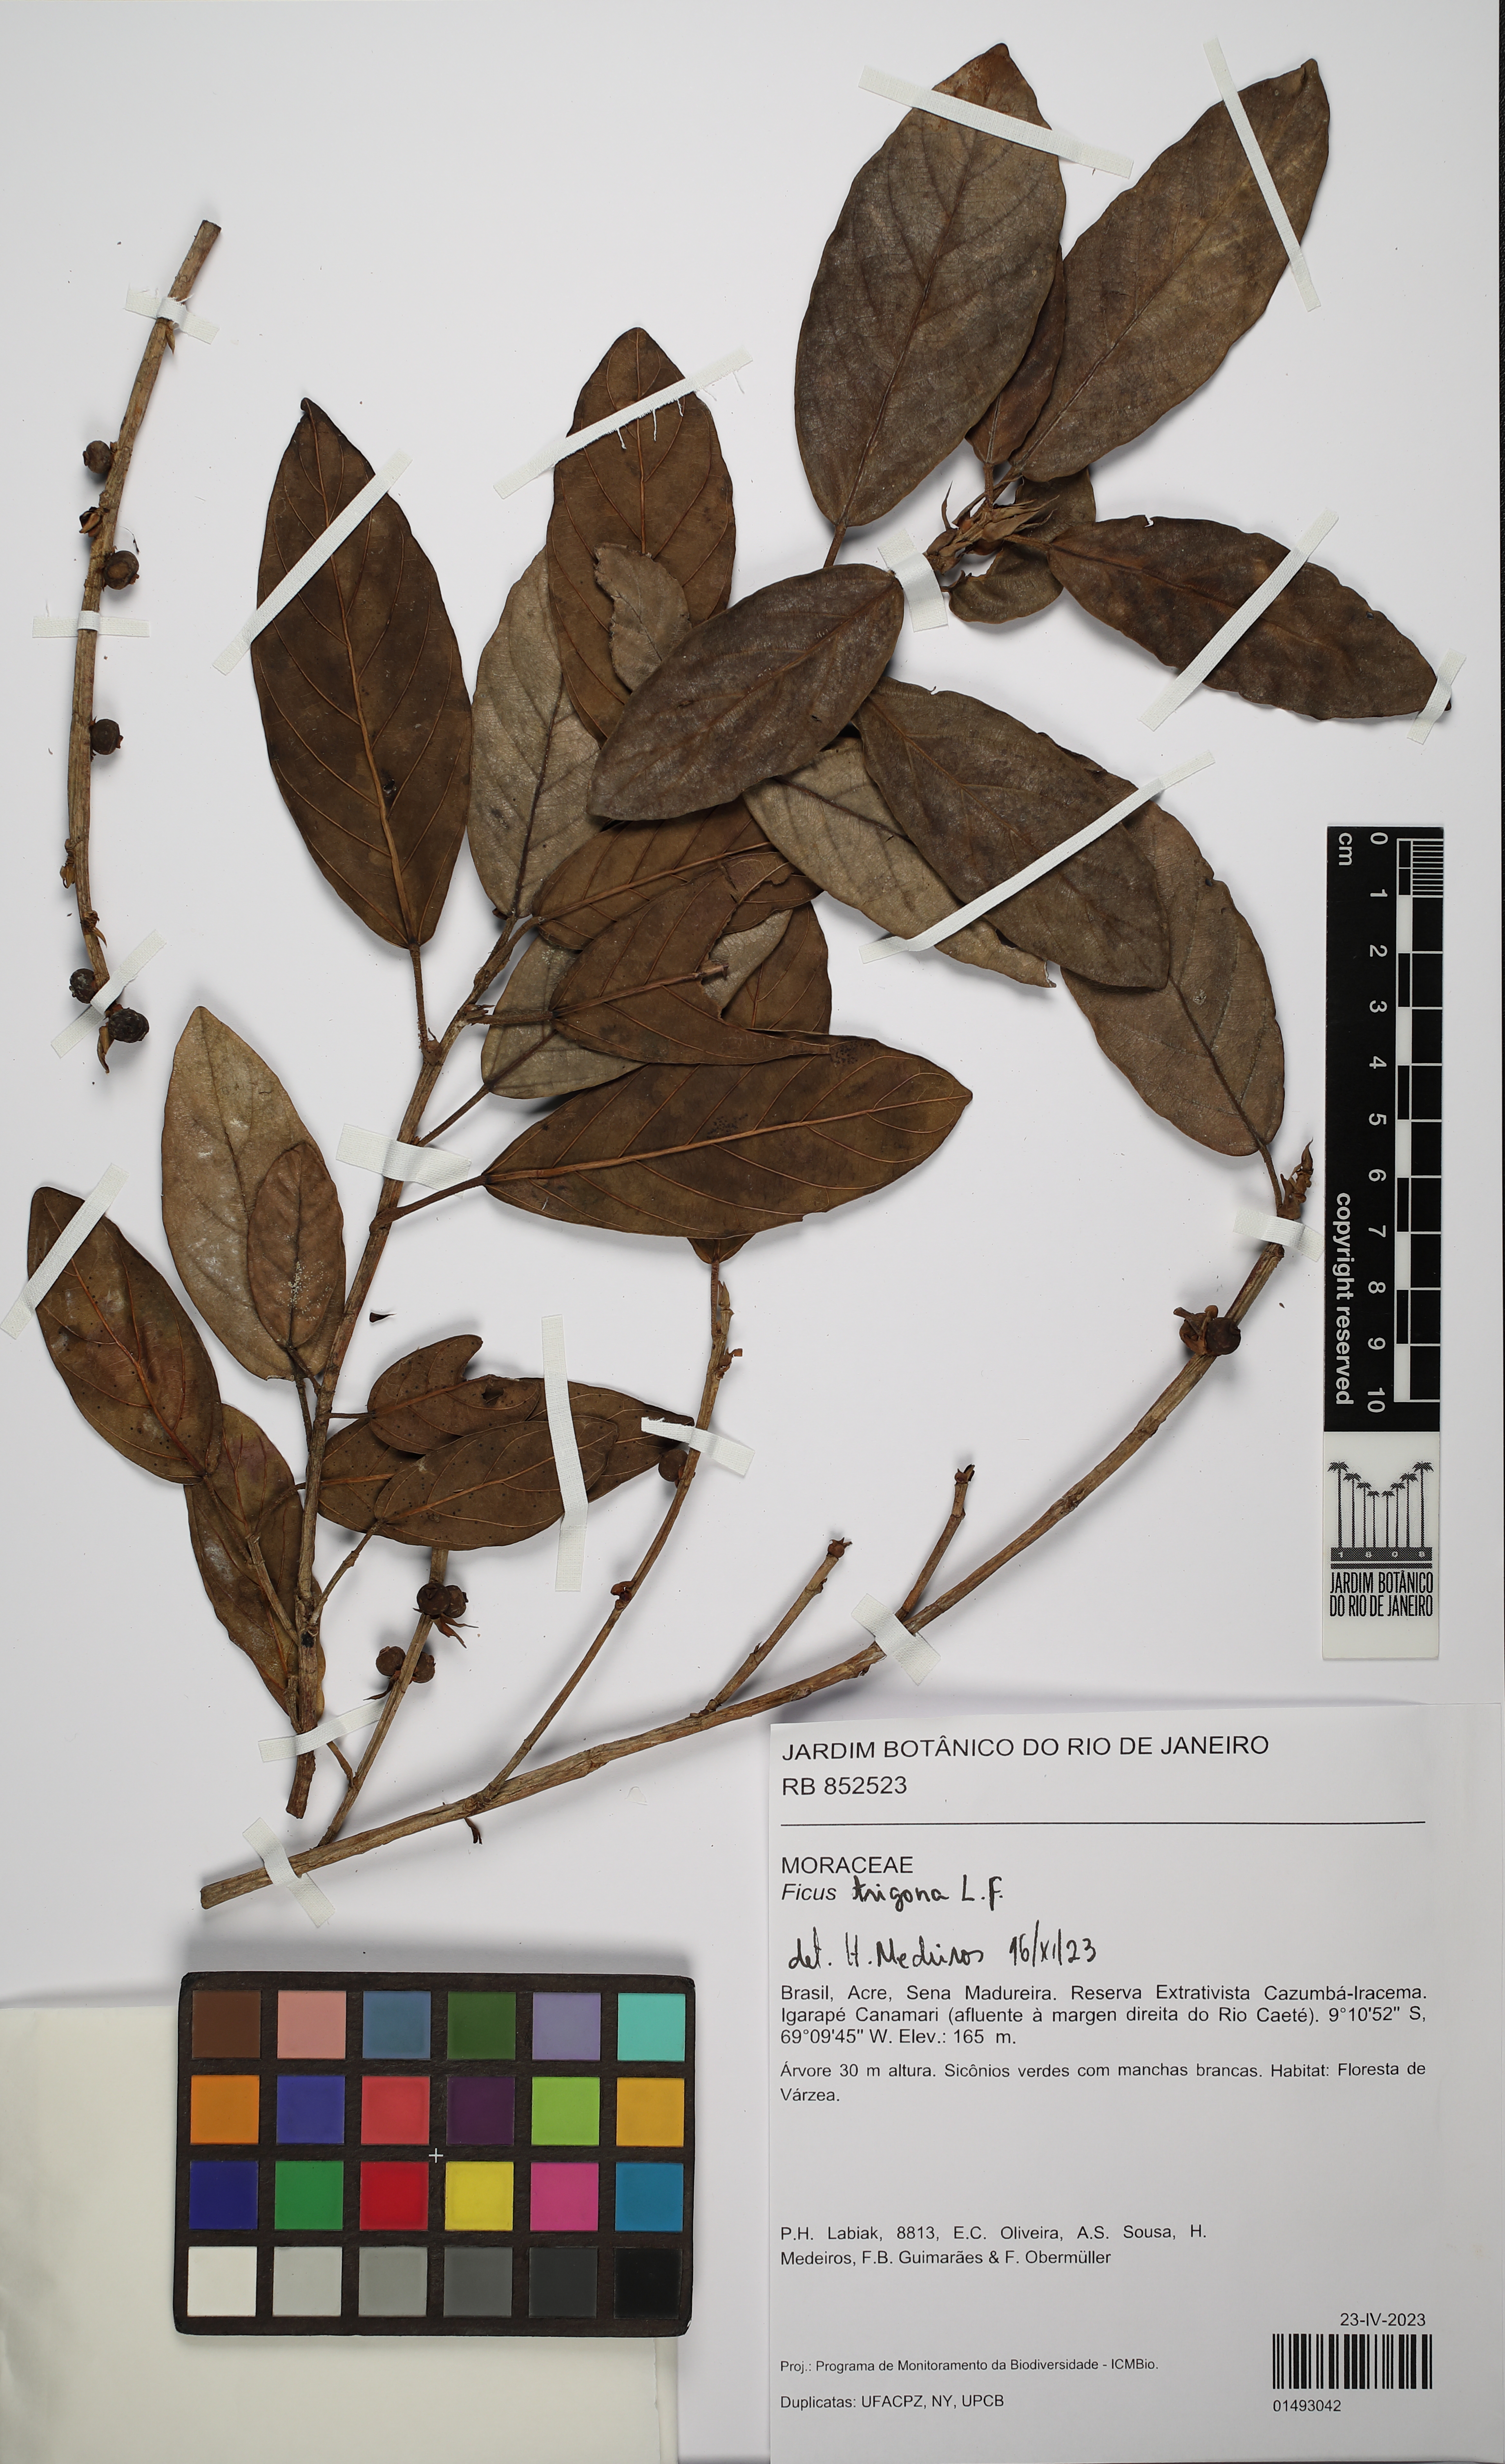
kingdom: Plantae
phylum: Tracheophyta
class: Magnoliopsida
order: Rosales
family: Moraceae
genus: Ficus
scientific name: Ficus trigona
